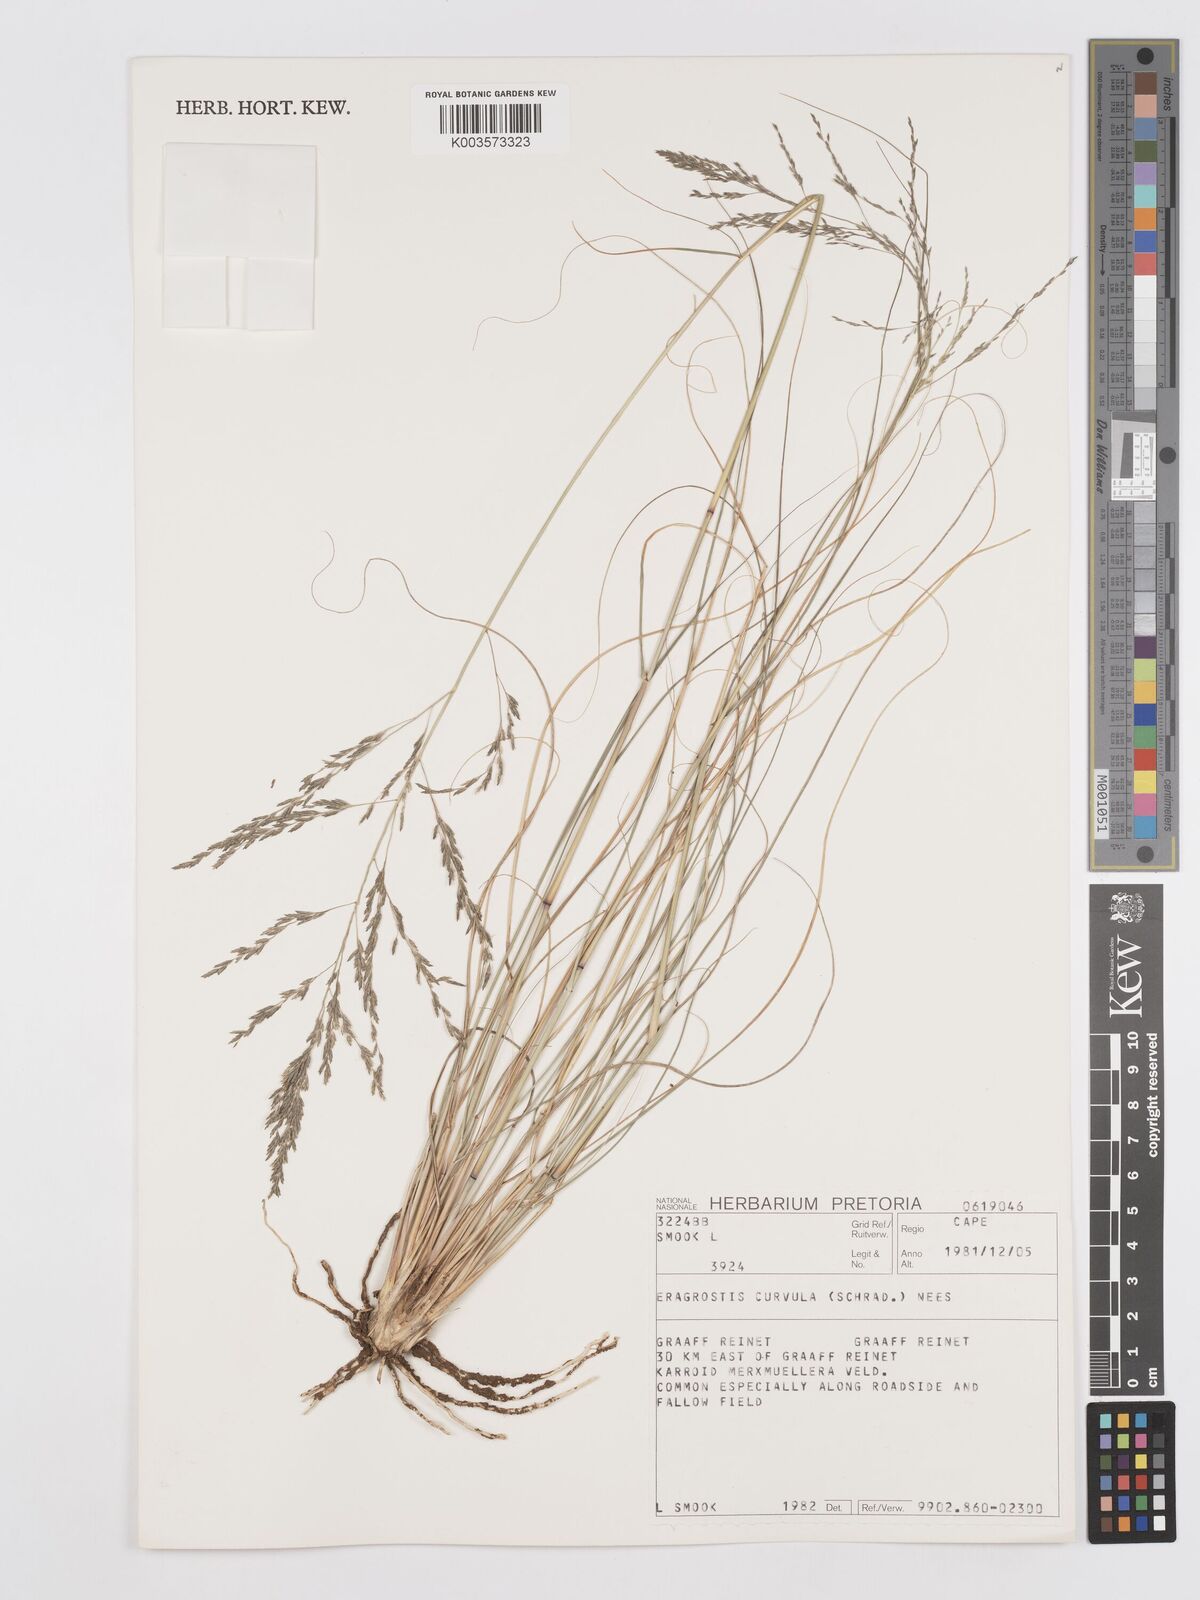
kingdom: Plantae
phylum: Tracheophyta
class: Liliopsida
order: Poales
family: Poaceae
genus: Eragrostis
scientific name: Eragrostis curvula
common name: African love-grass
